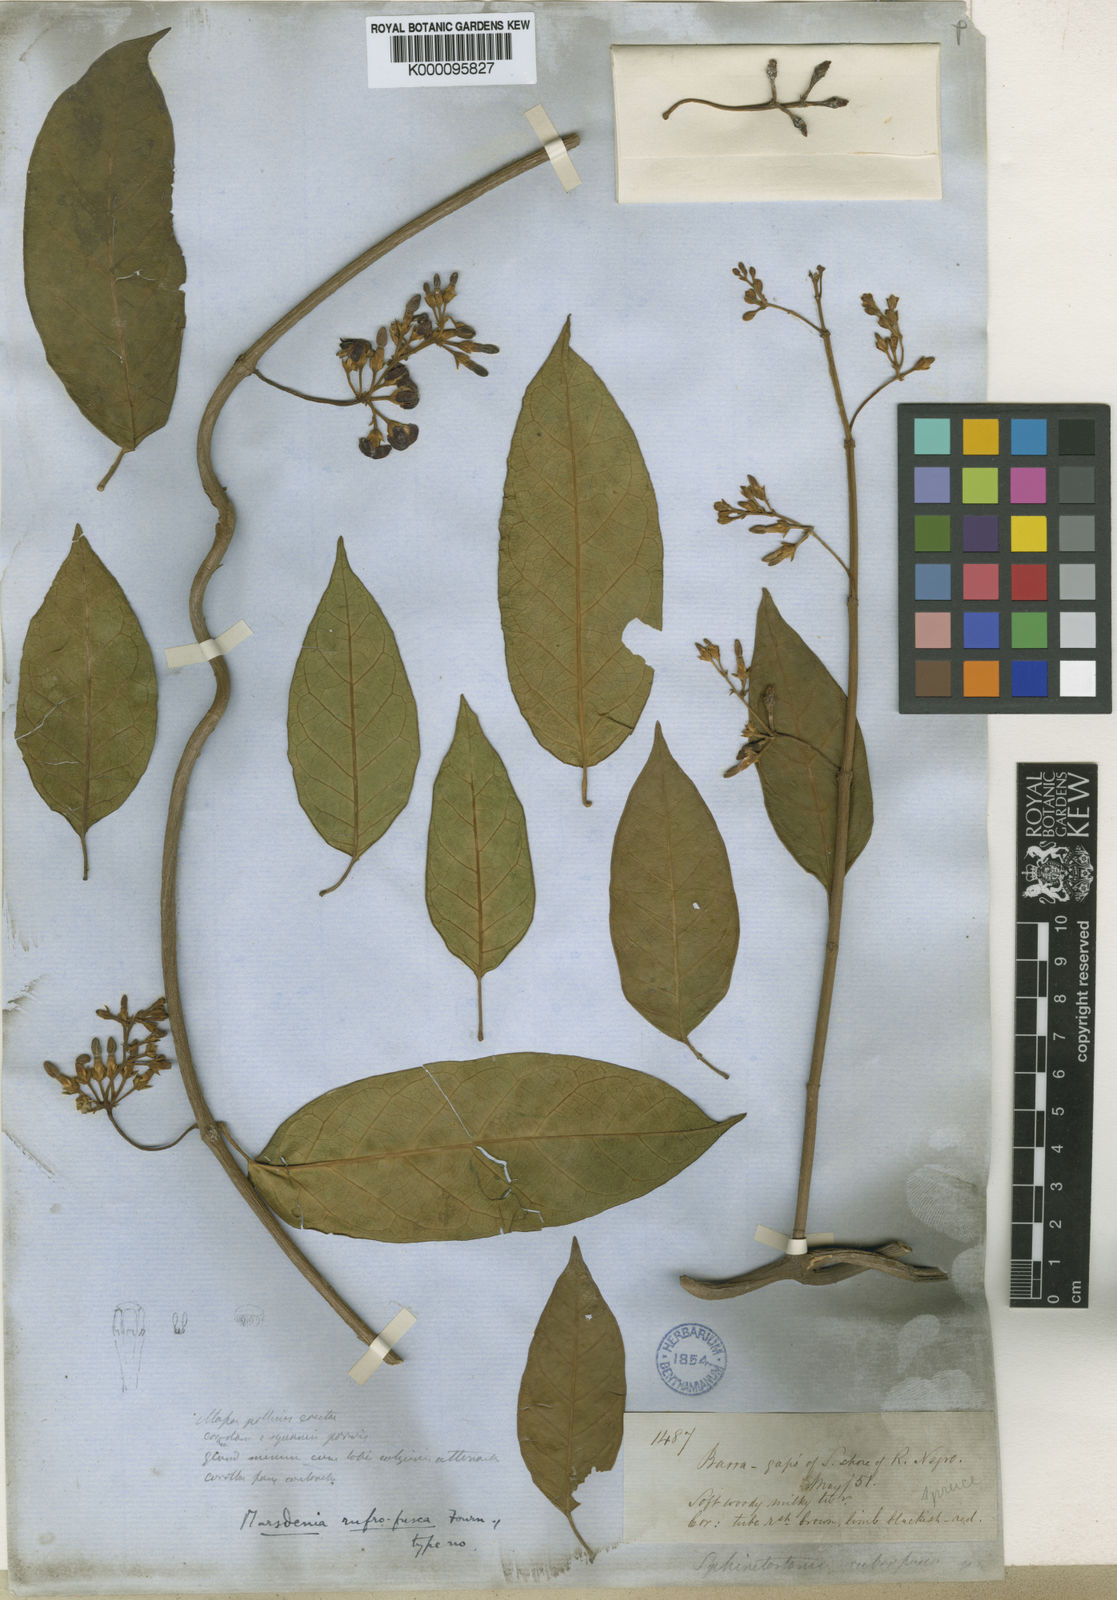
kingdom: Plantae
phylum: Tracheophyta
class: Magnoliopsida
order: Gentianales
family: Apocynaceae
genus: Ruehssia
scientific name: Ruehssia rubrofusca
